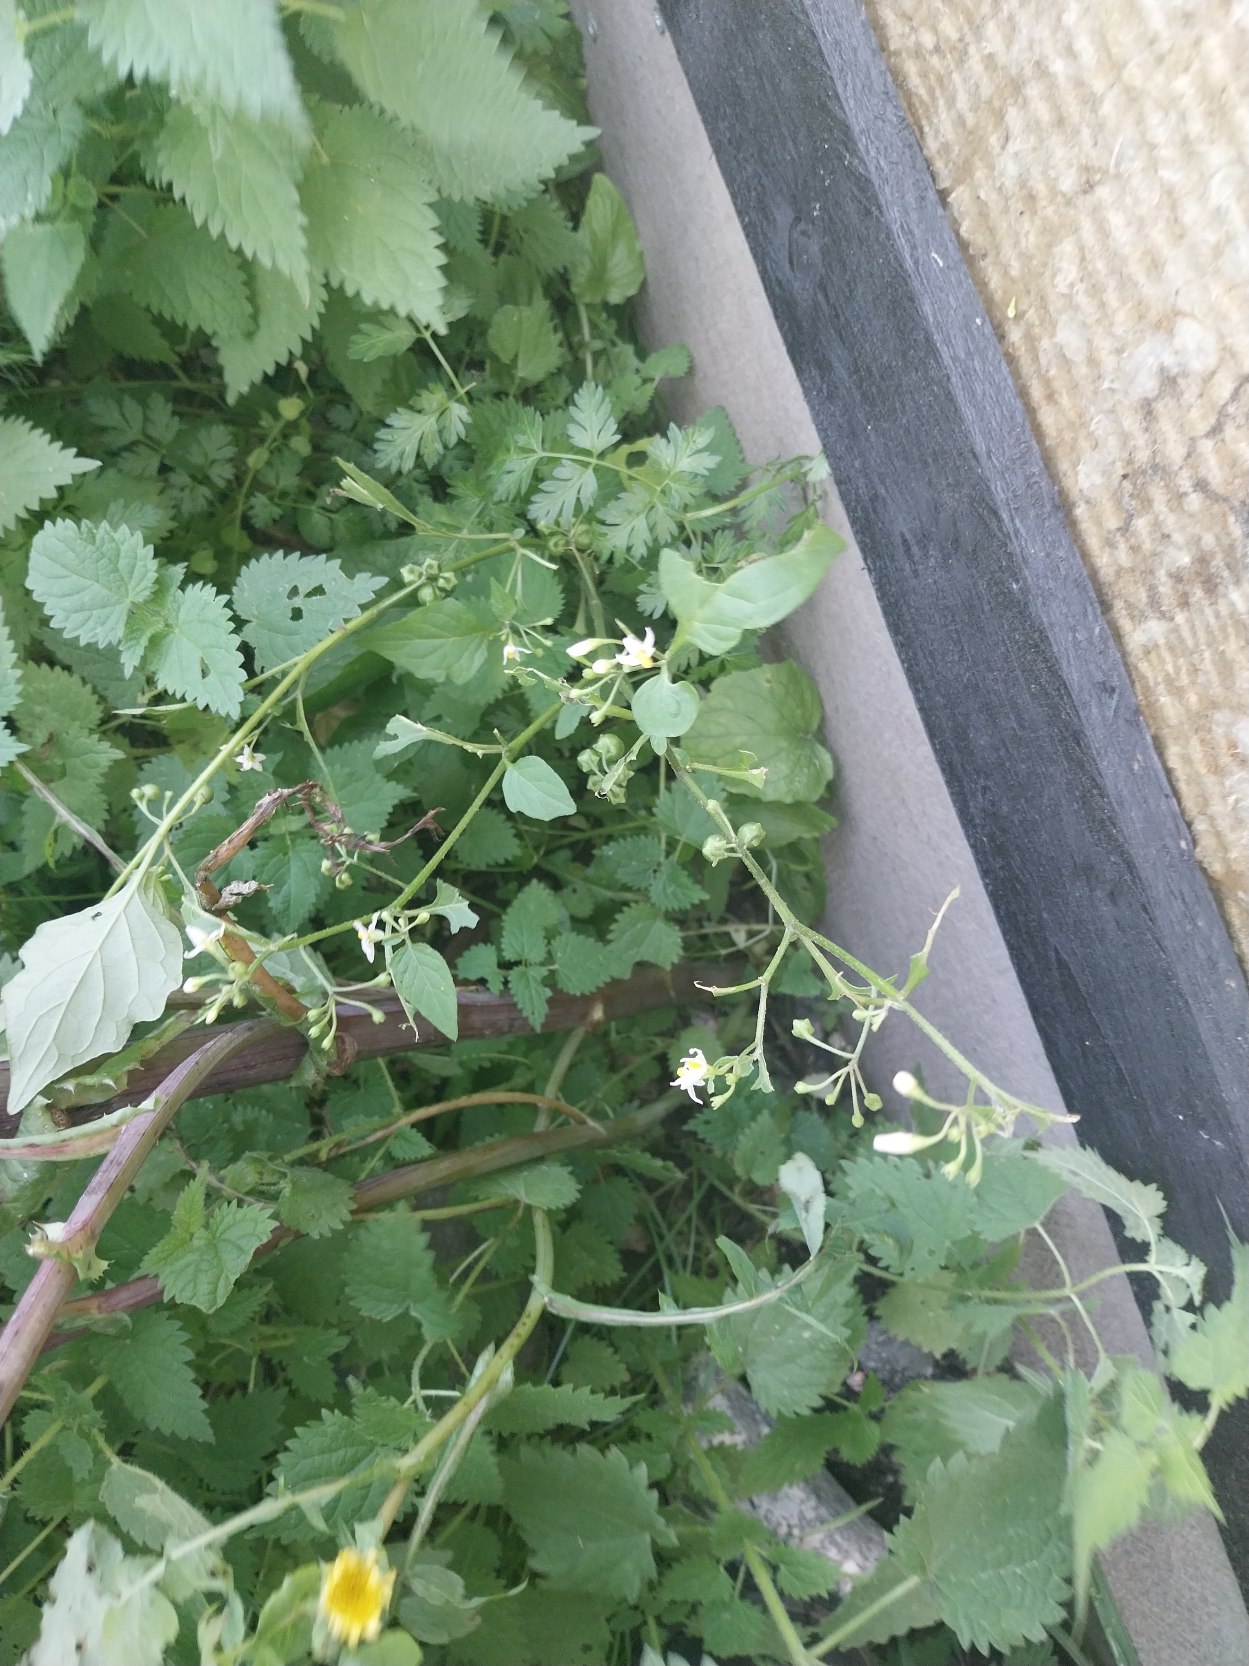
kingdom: Plantae
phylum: Tracheophyta
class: Magnoliopsida
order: Solanales
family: Solanaceae
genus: Solanum
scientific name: Solanum nigrum
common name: Sort natskygge (underart)
